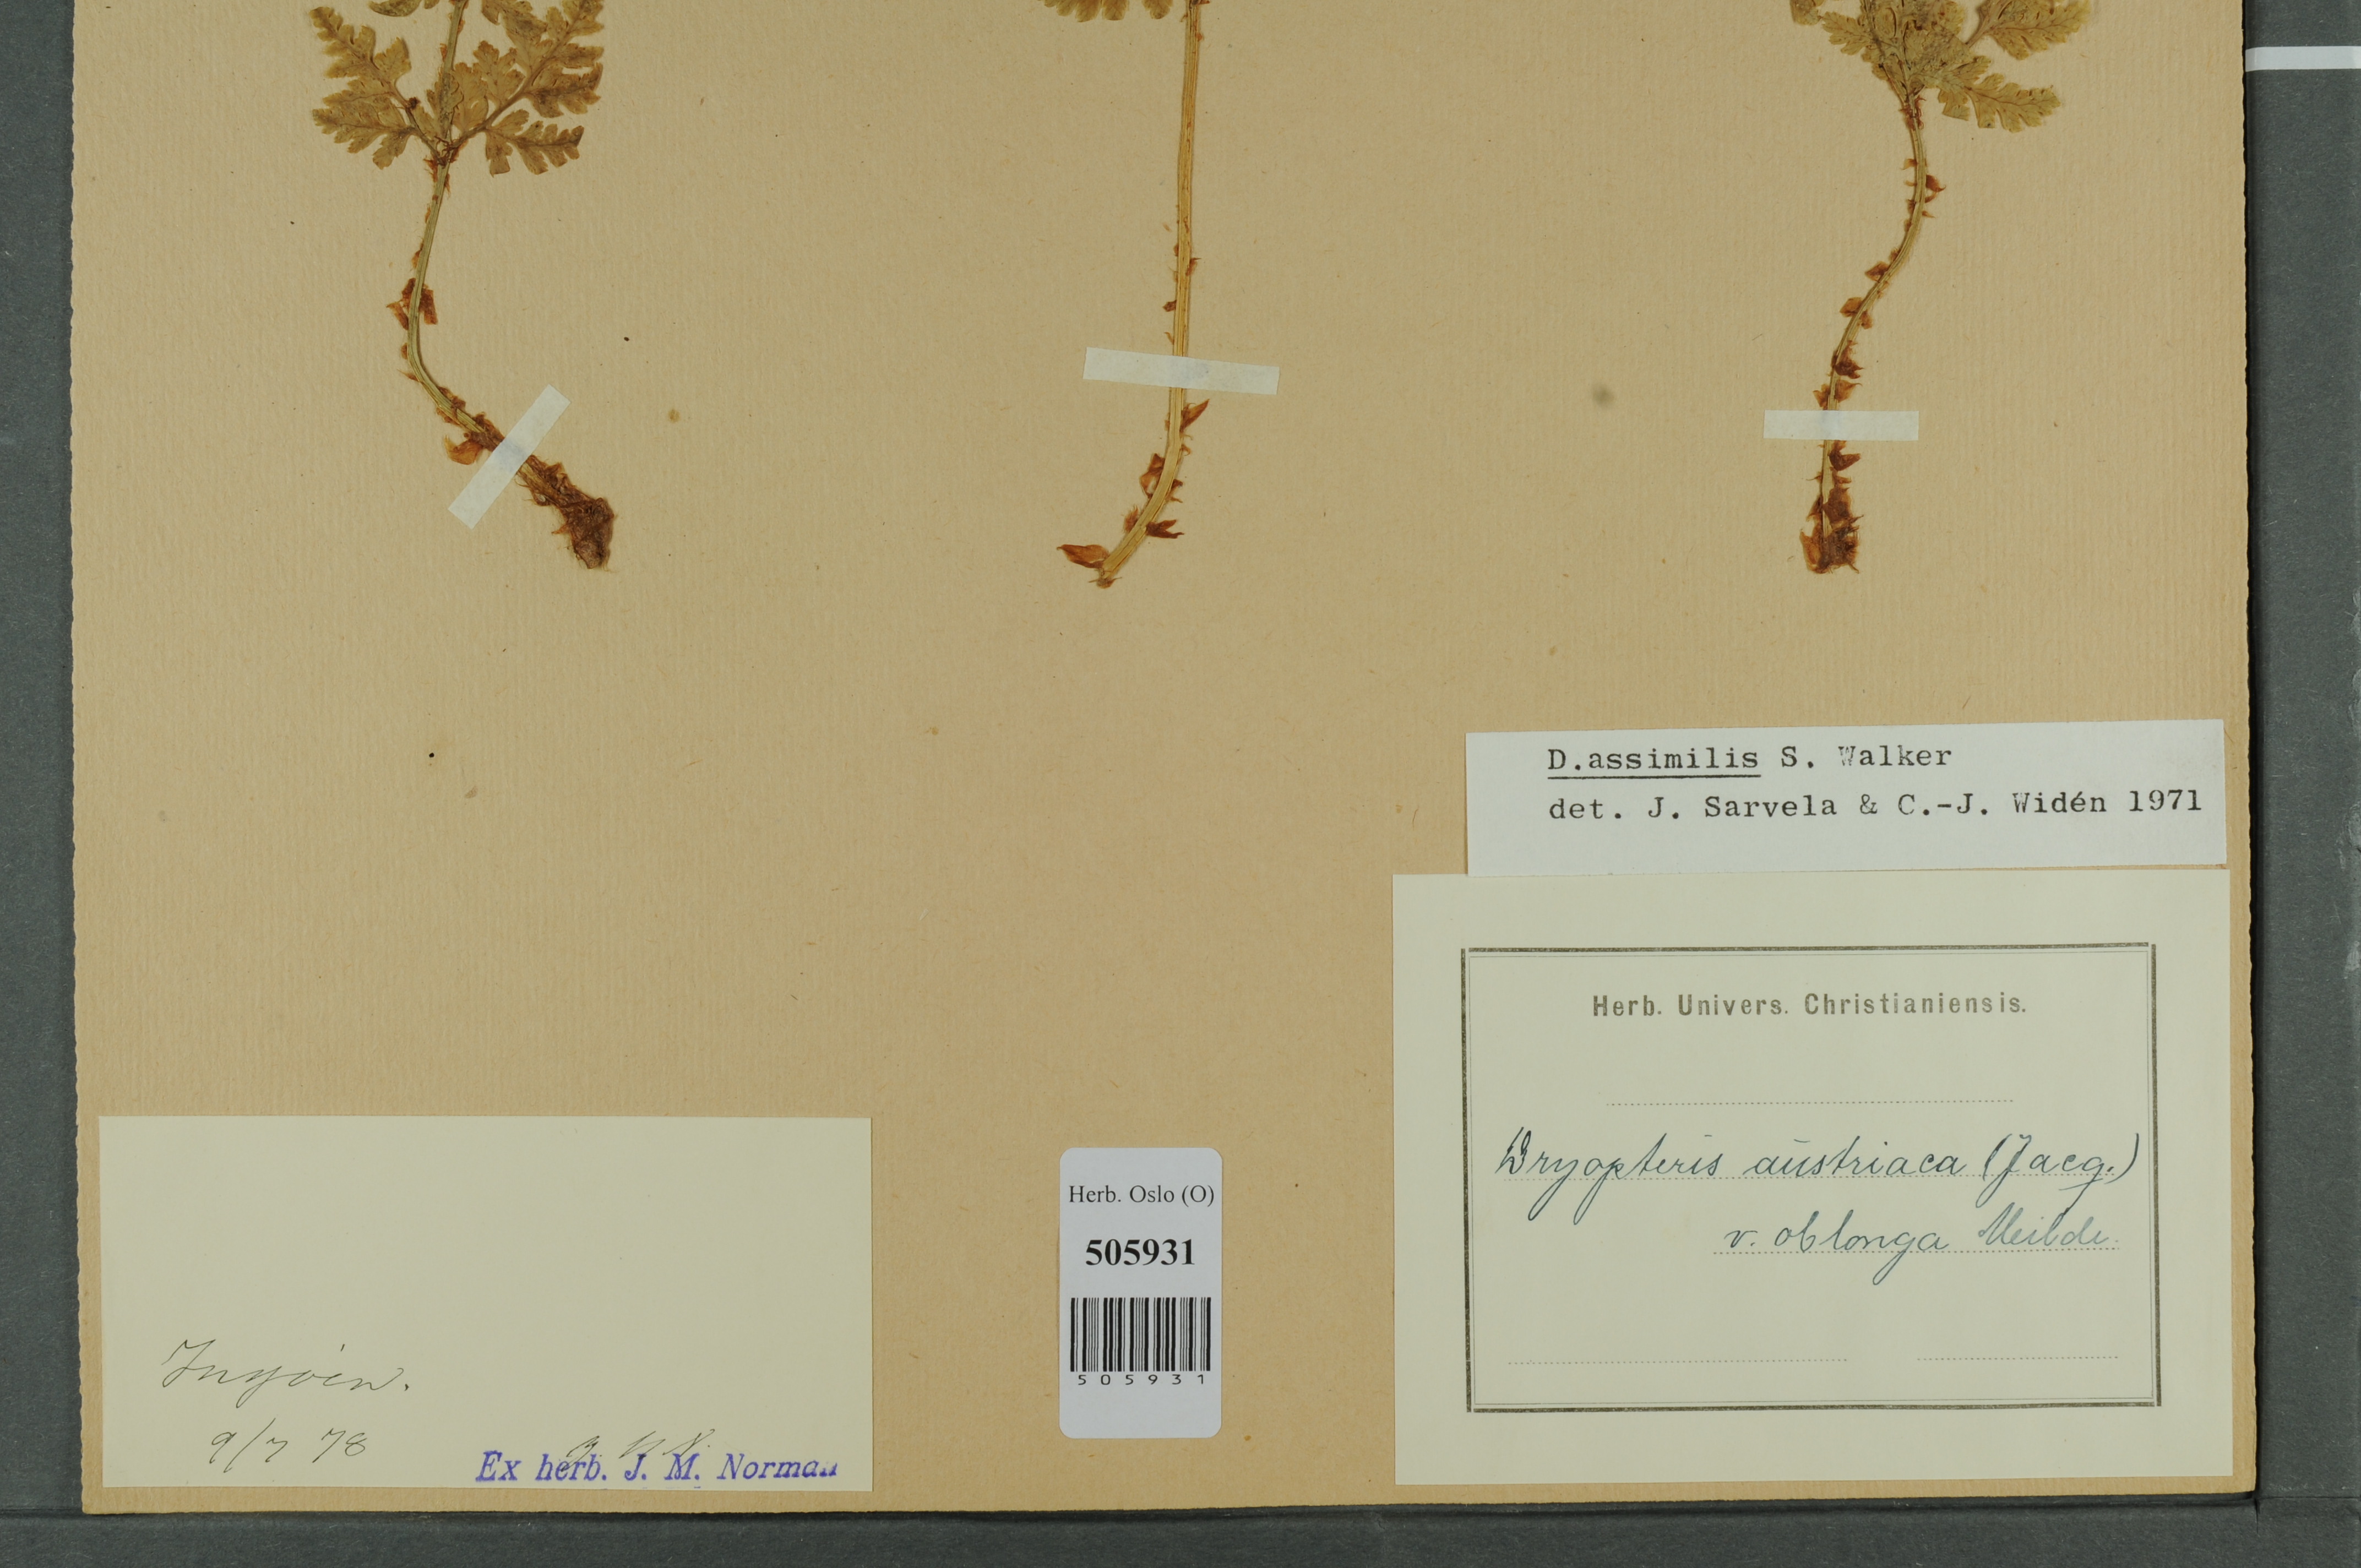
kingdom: Plantae
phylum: Tracheophyta
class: Polypodiopsida
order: Polypodiales
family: Dryopteridaceae
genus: Dryopteris
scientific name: Dryopteris expansa
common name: Northern buckler fern
